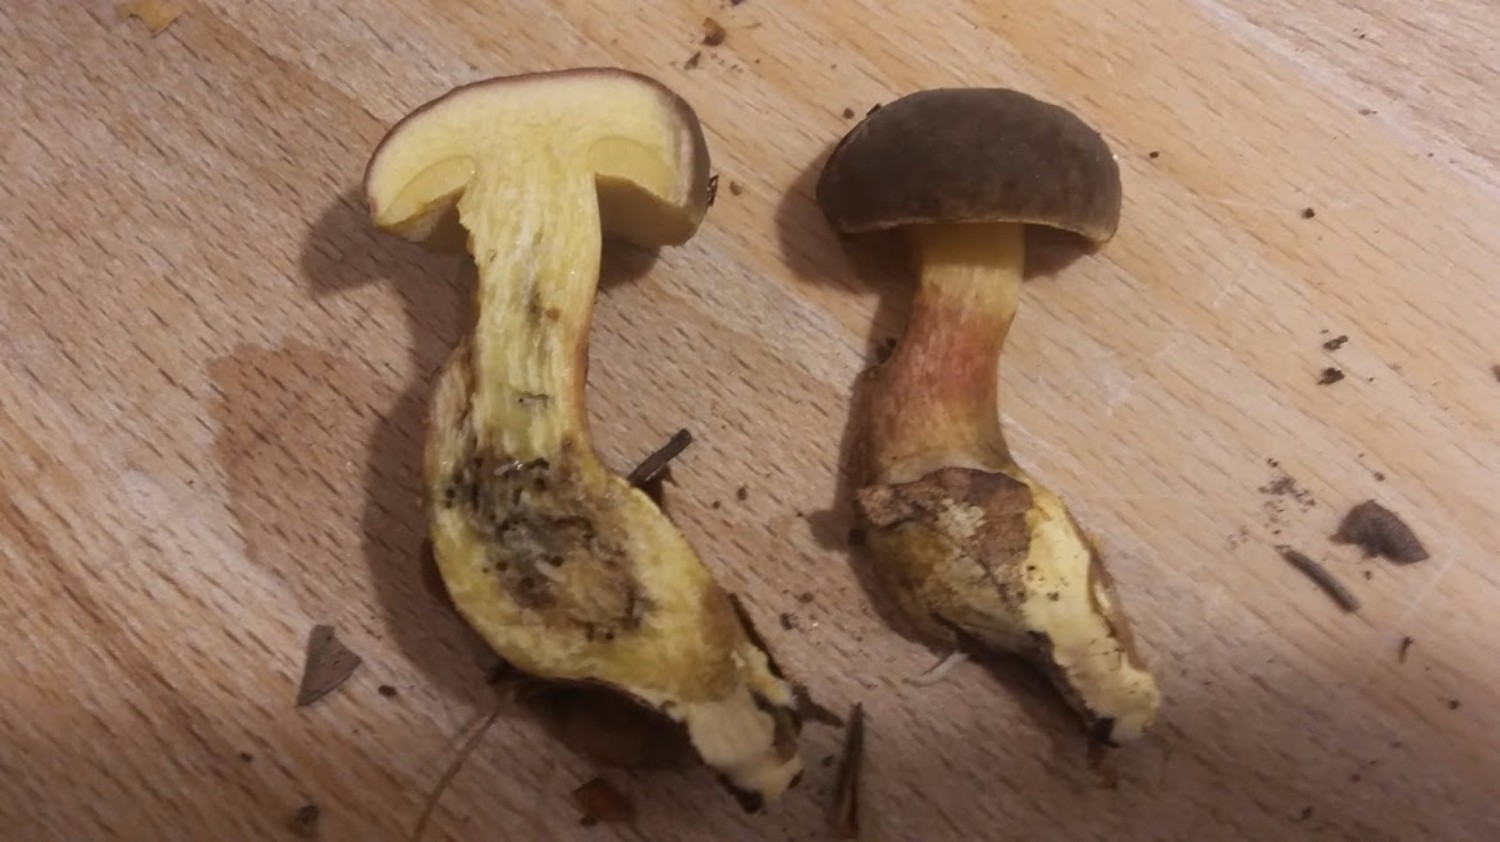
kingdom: Fungi
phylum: Basidiomycota
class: Agaricomycetes
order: Boletales
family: Boletaceae
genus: Xerocomellus
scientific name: Xerocomellus pruinatus
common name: dugget rørhat
